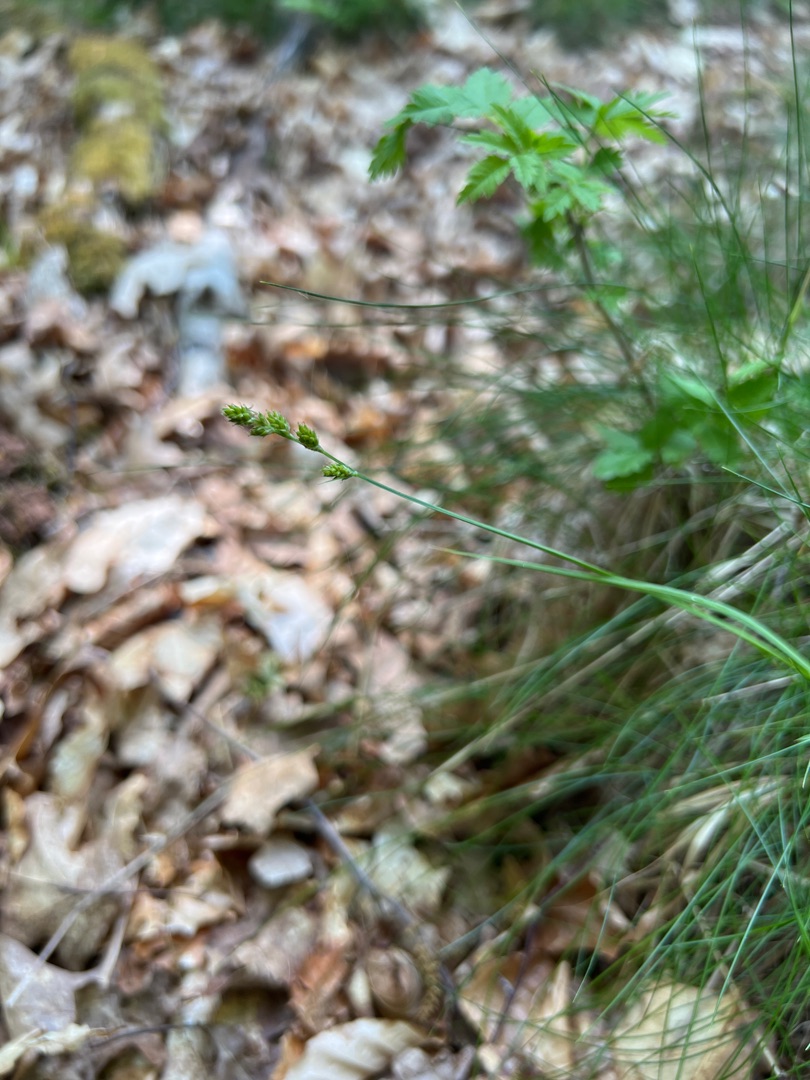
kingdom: Plantae
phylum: Tracheophyta
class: Liliopsida
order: Poales
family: Cyperaceae
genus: Carex
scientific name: Carex canescens
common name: Grå star
